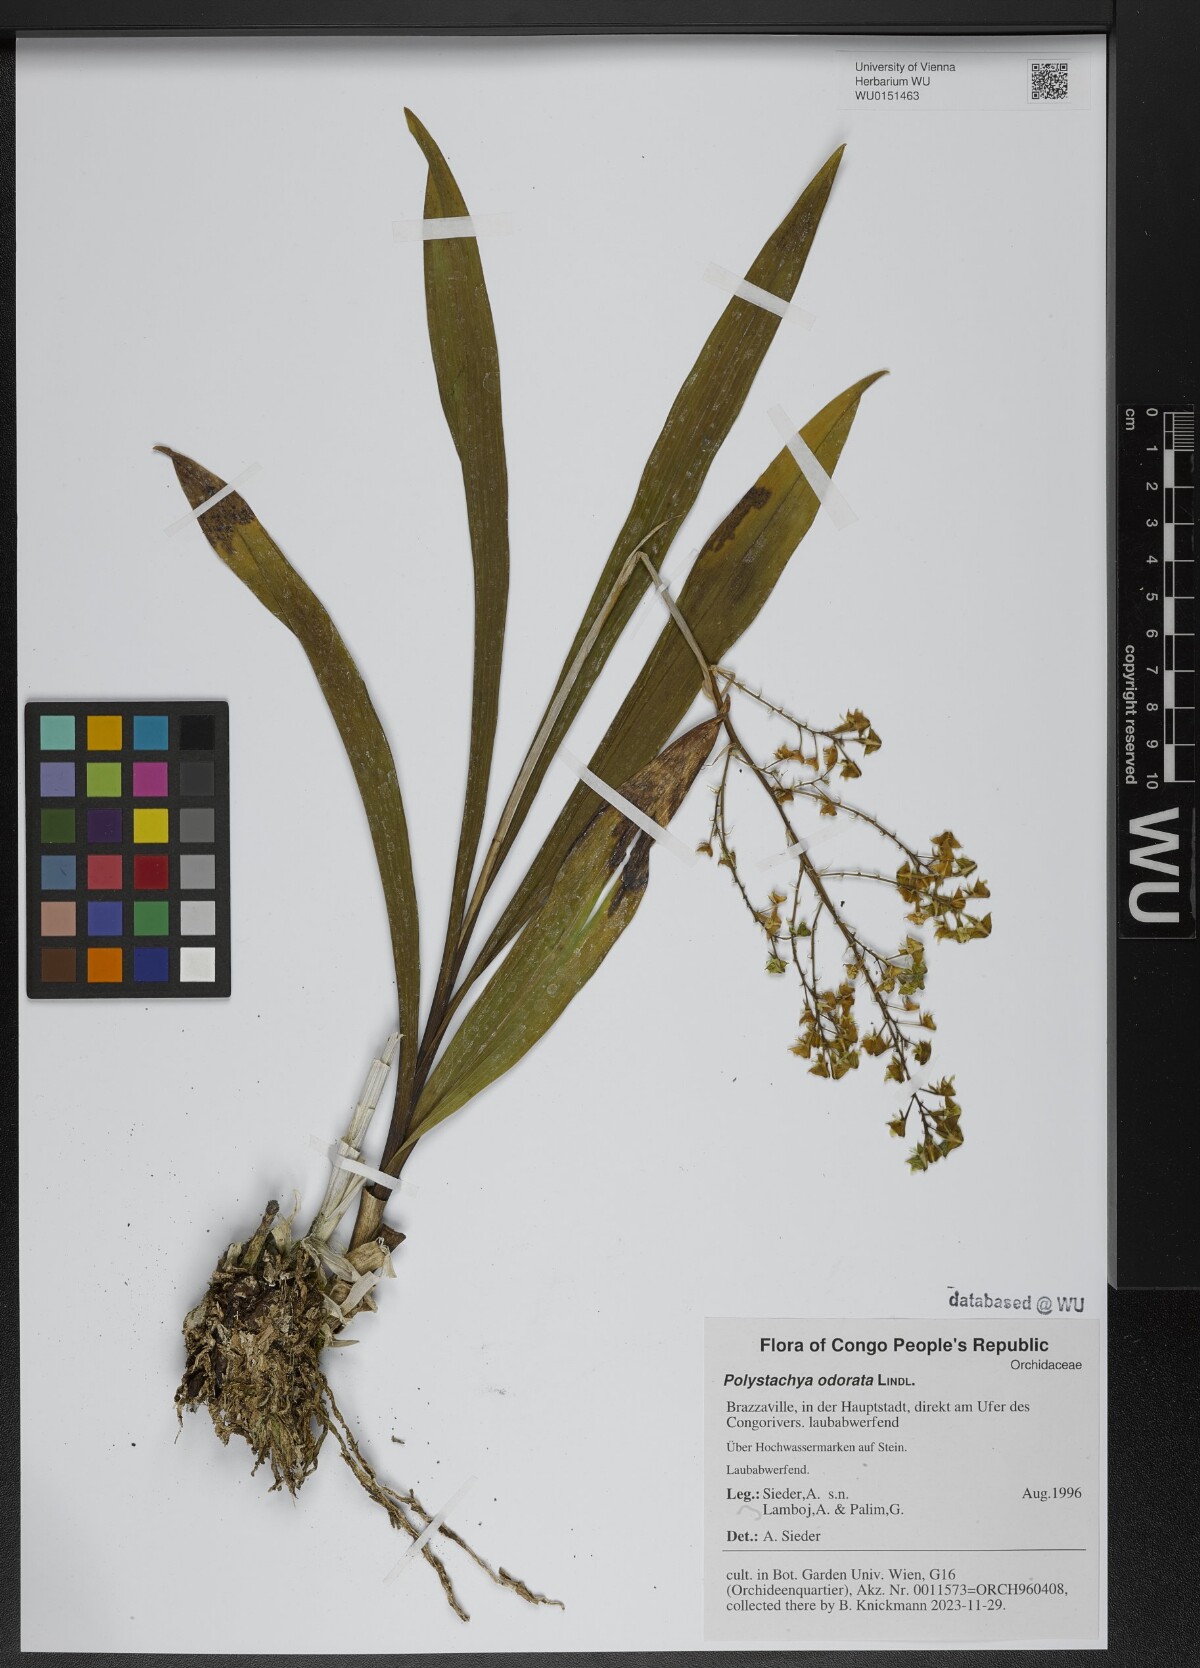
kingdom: Plantae
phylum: Tracheophyta
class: Liliopsida
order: Asparagales
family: Orchidaceae
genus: Polystachya
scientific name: Polystachya odorata
